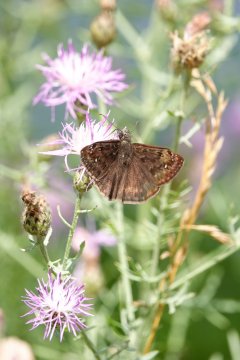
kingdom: Animalia
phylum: Arthropoda
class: Insecta
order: Lepidoptera
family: Hesperiidae
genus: Gesta
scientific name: Gesta
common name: Horace's Duskywing
